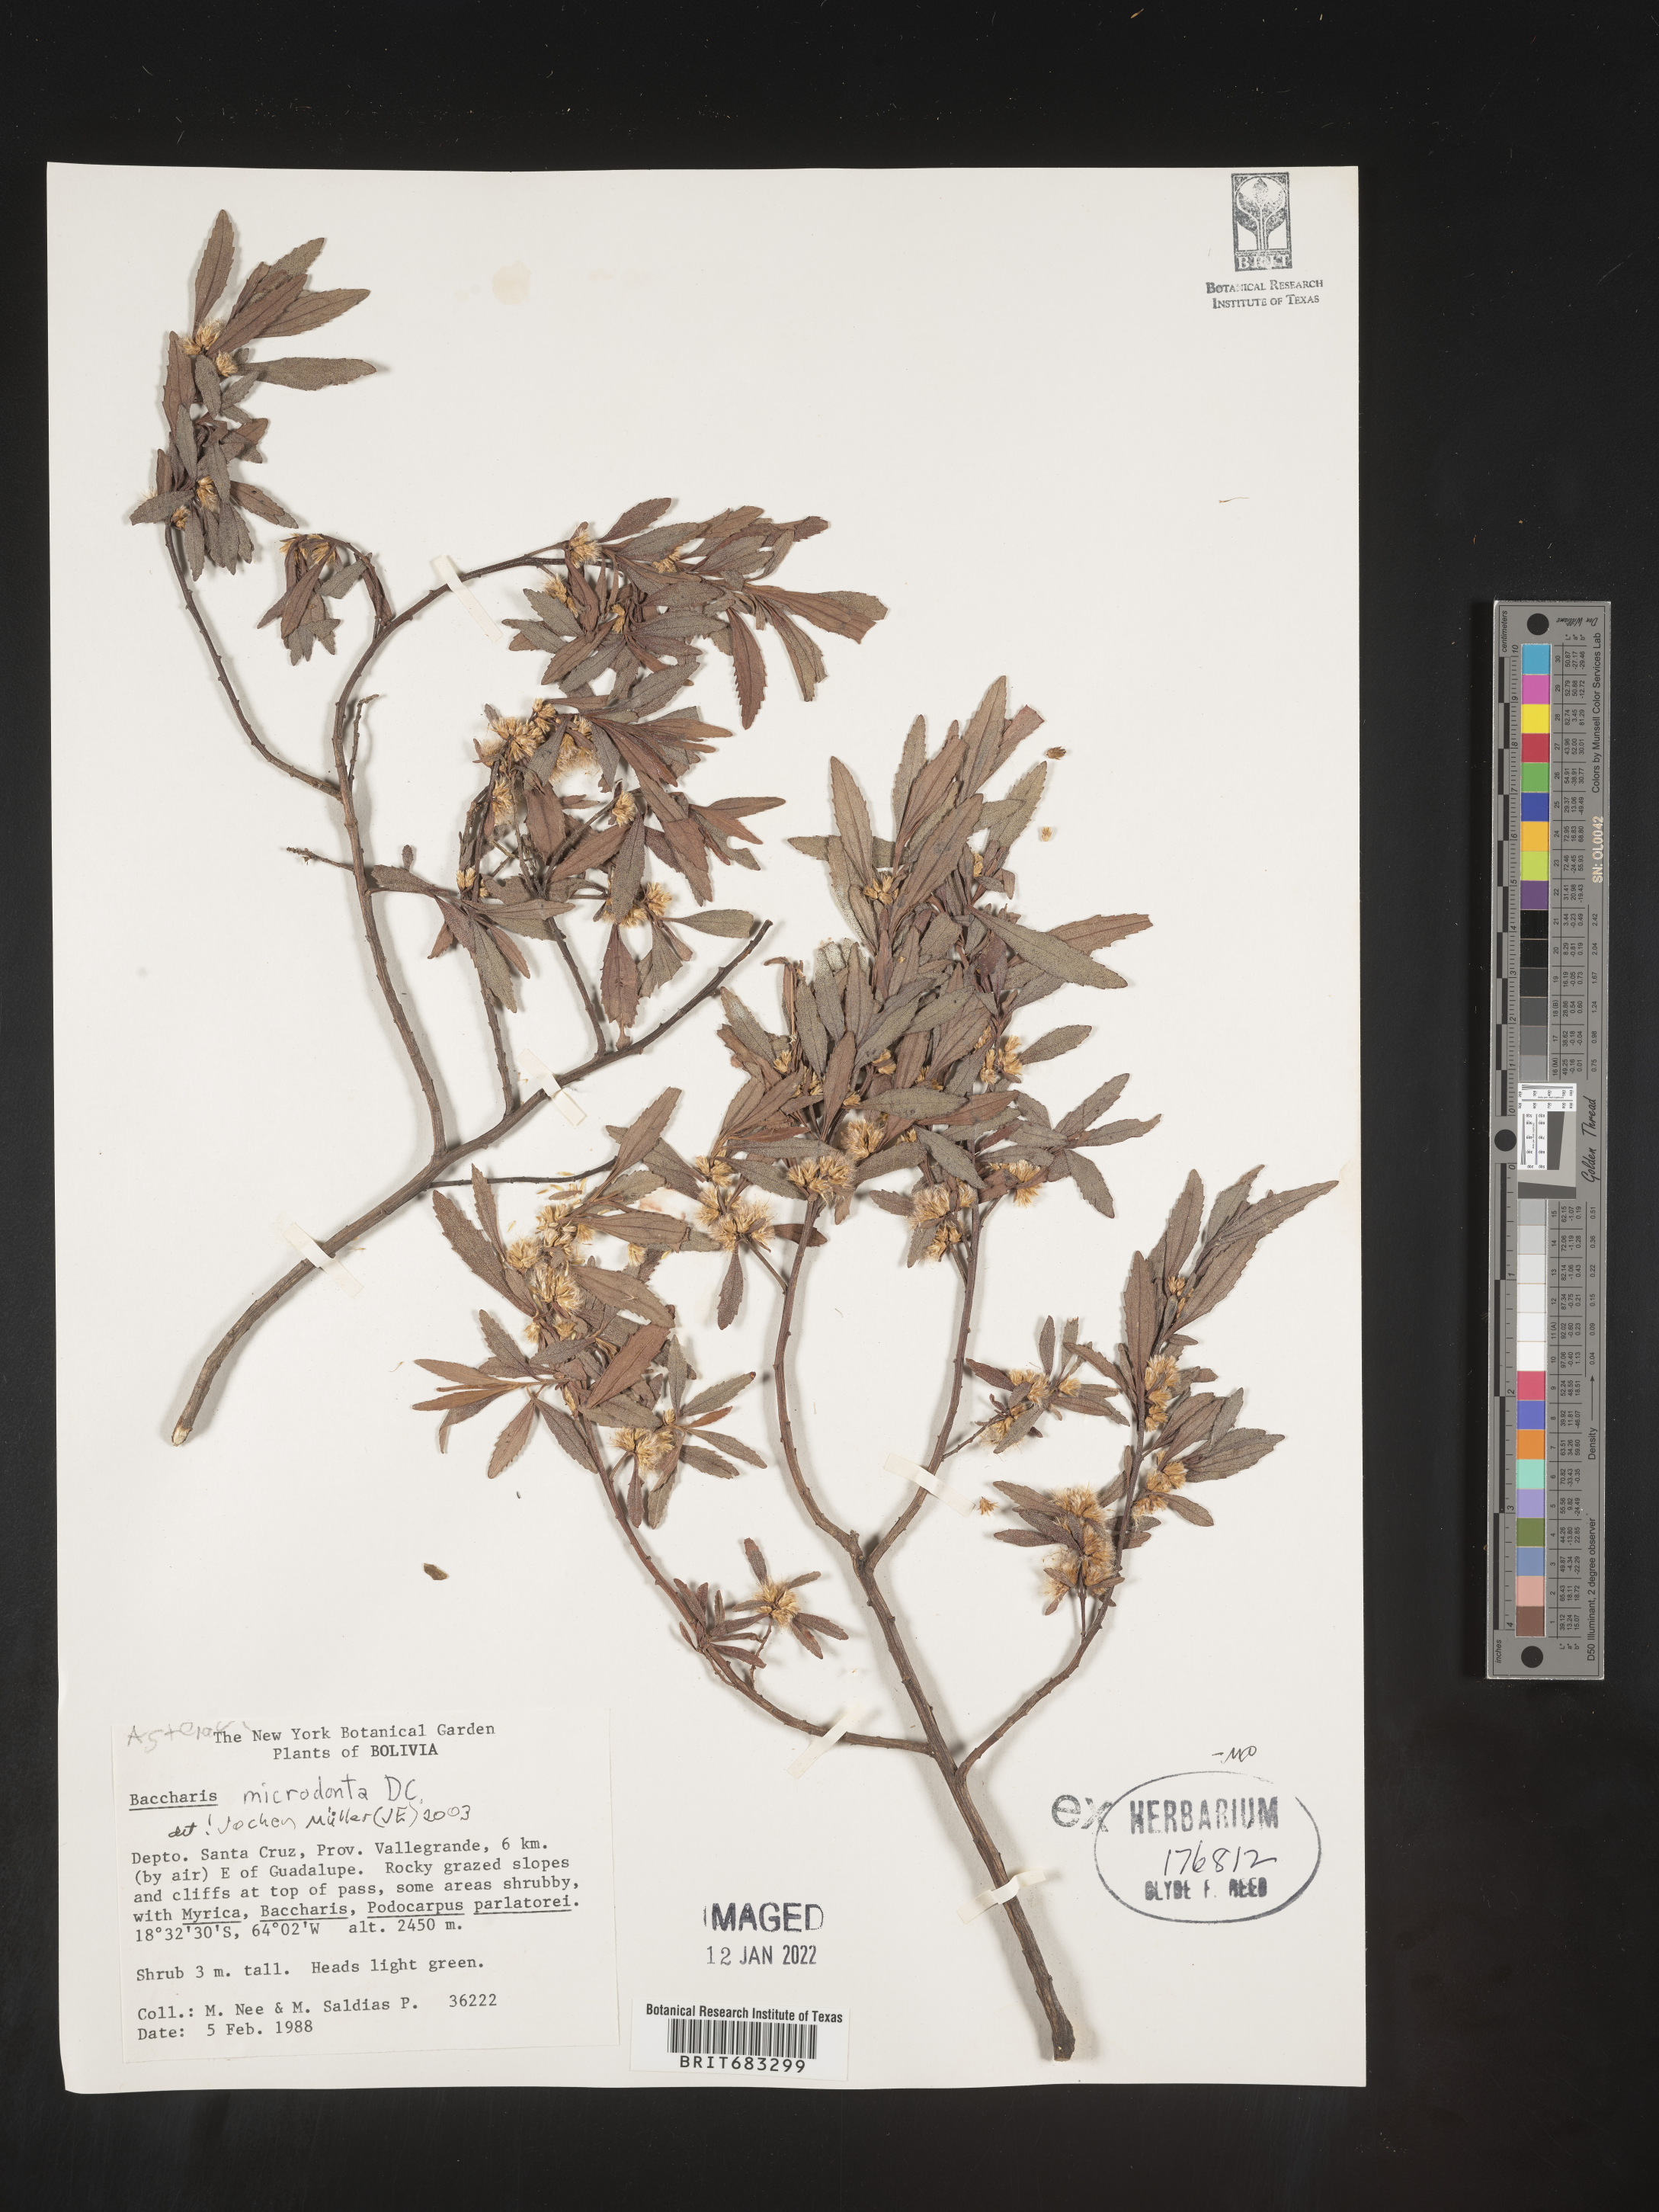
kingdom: Plantae
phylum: Tracheophyta
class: Magnoliopsida
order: Asterales
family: Asteraceae
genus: Baccharis
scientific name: Baccharis
